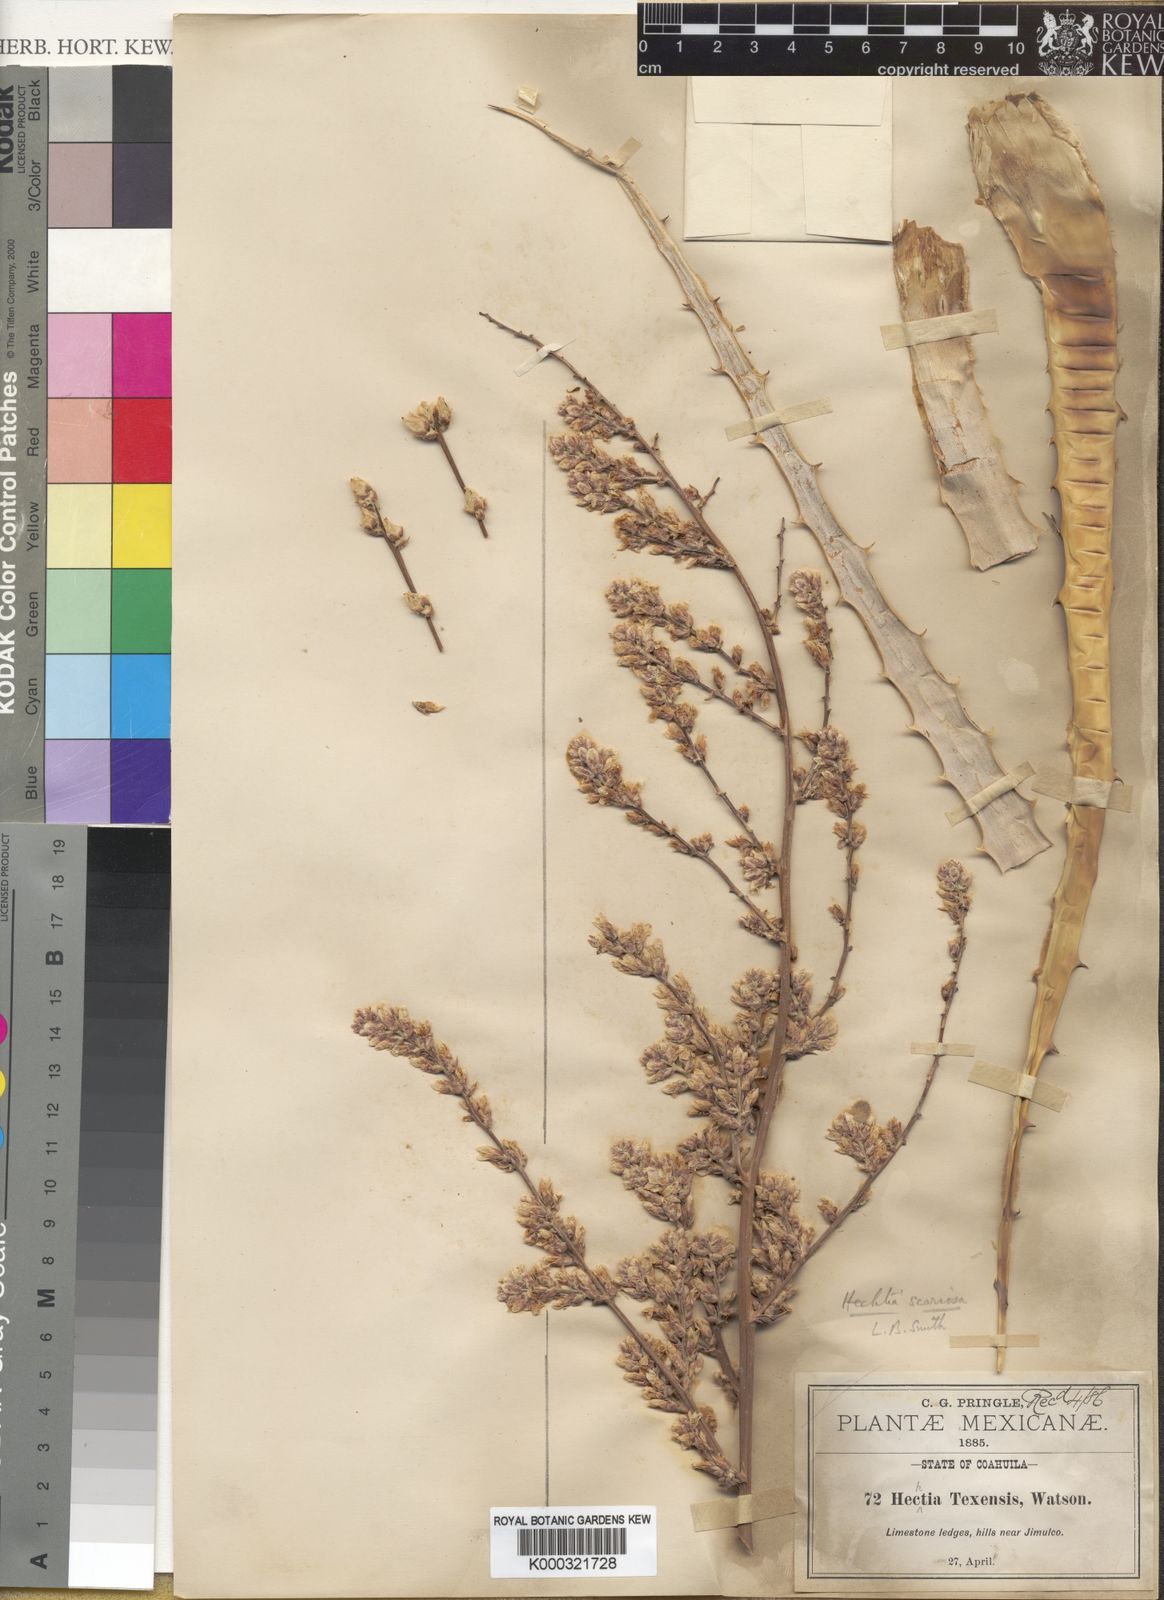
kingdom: Plantae
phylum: Tracheophyta
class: Liliopsida
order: Poales
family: Bromeliaceae
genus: Hechtia
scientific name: Hechtia texensis
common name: False agave
